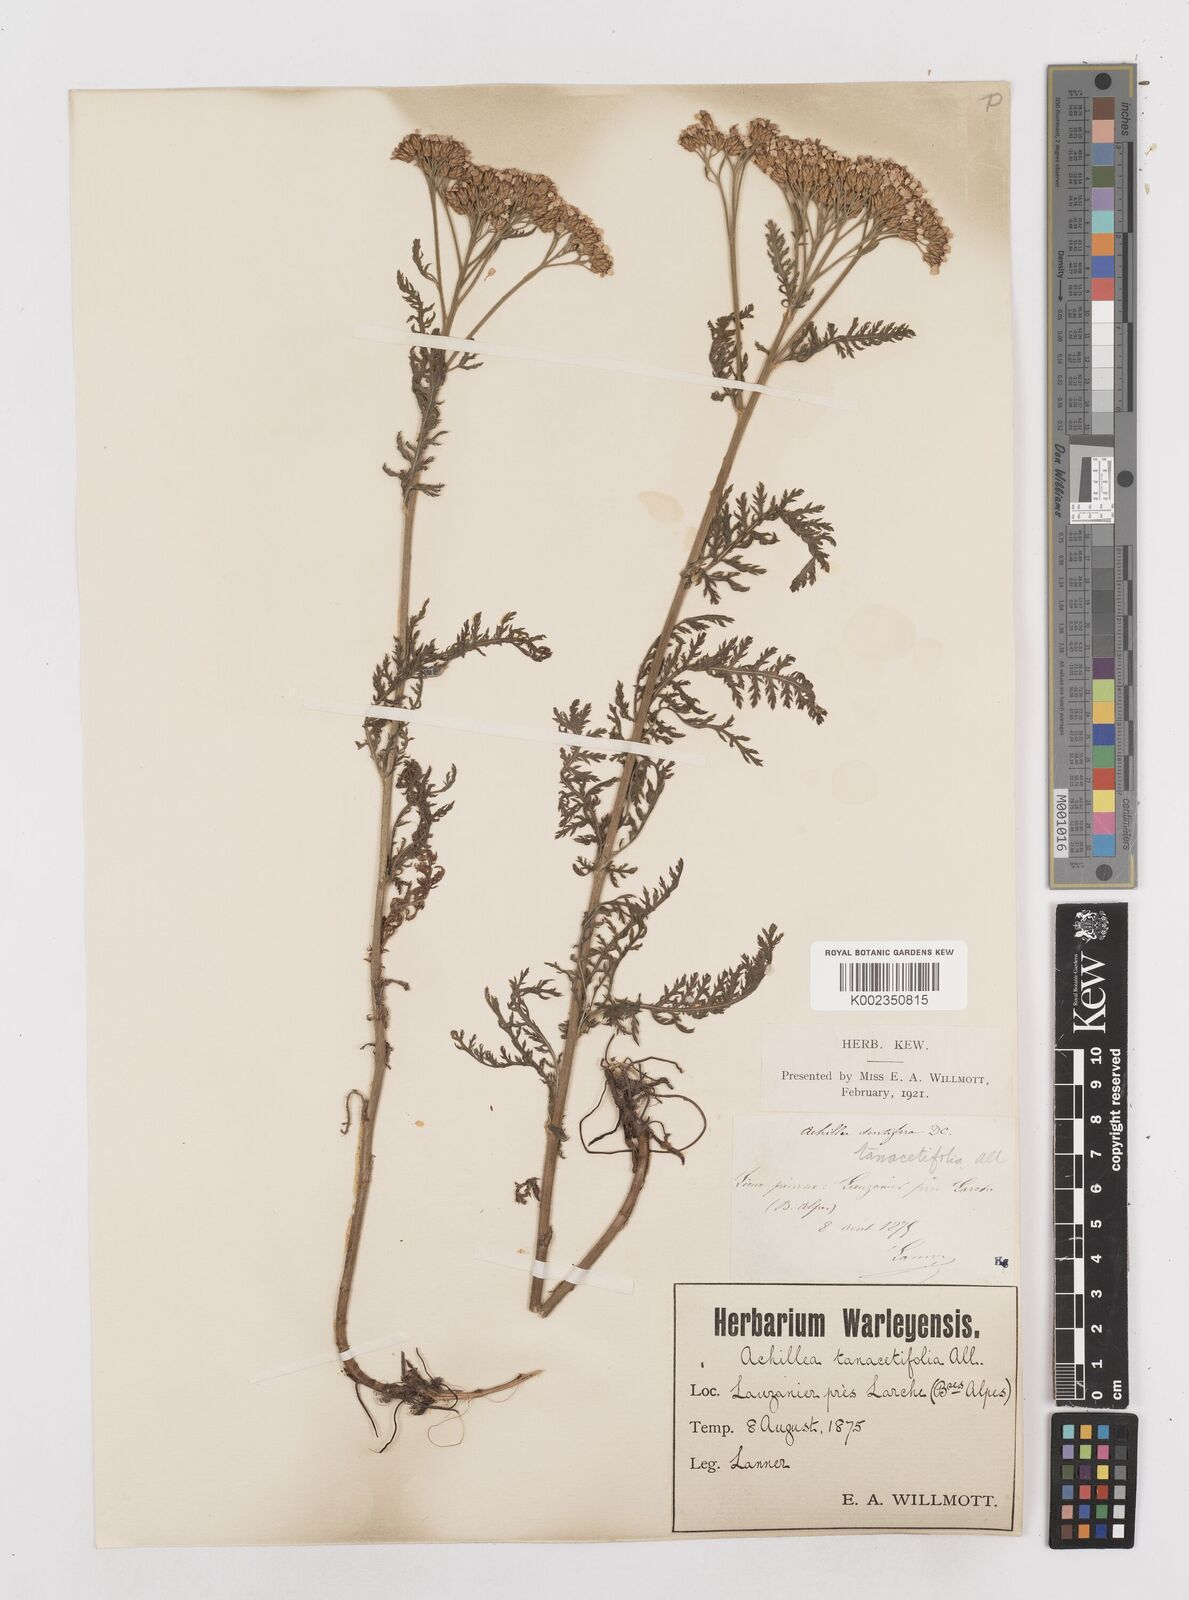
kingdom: Plantae
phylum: Tracheophyta
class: Magnoliopsida
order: Asterales
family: Asteraceae
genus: Achillea
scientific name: Achillea distans
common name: Tall yarrow
